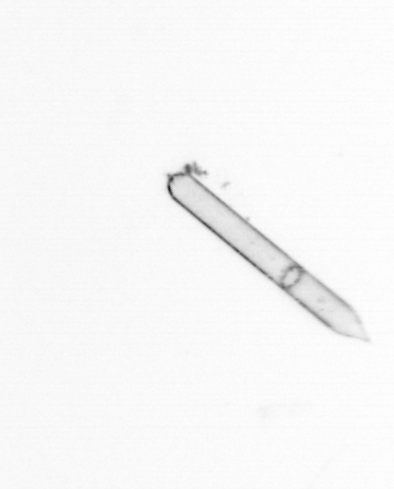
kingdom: Chromista
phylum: Ochrophyta
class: Bacillariophyceae
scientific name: Bacillariophyceae
